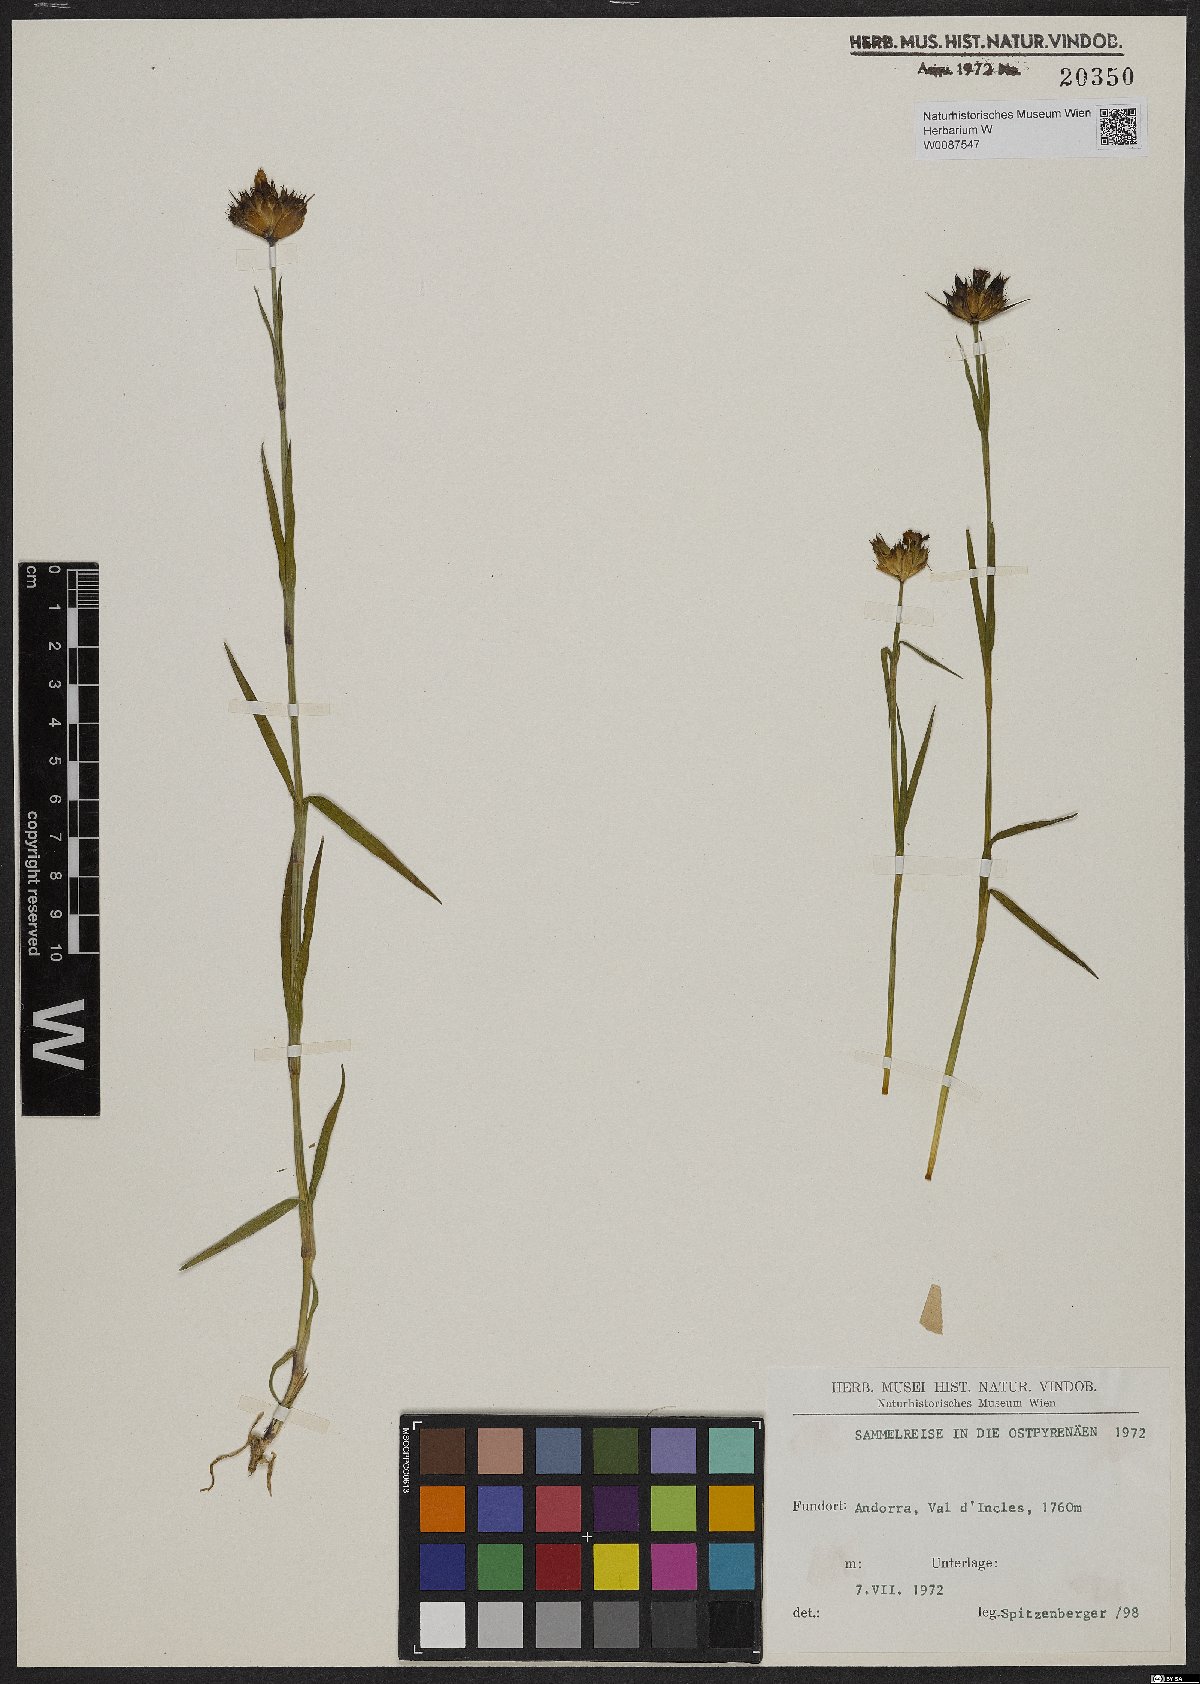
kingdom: Plantae
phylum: Tracheophyta
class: Magnoliopsida
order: Caryophyllales
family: Caryophyllaceae
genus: Dianthus
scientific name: Dianthus
